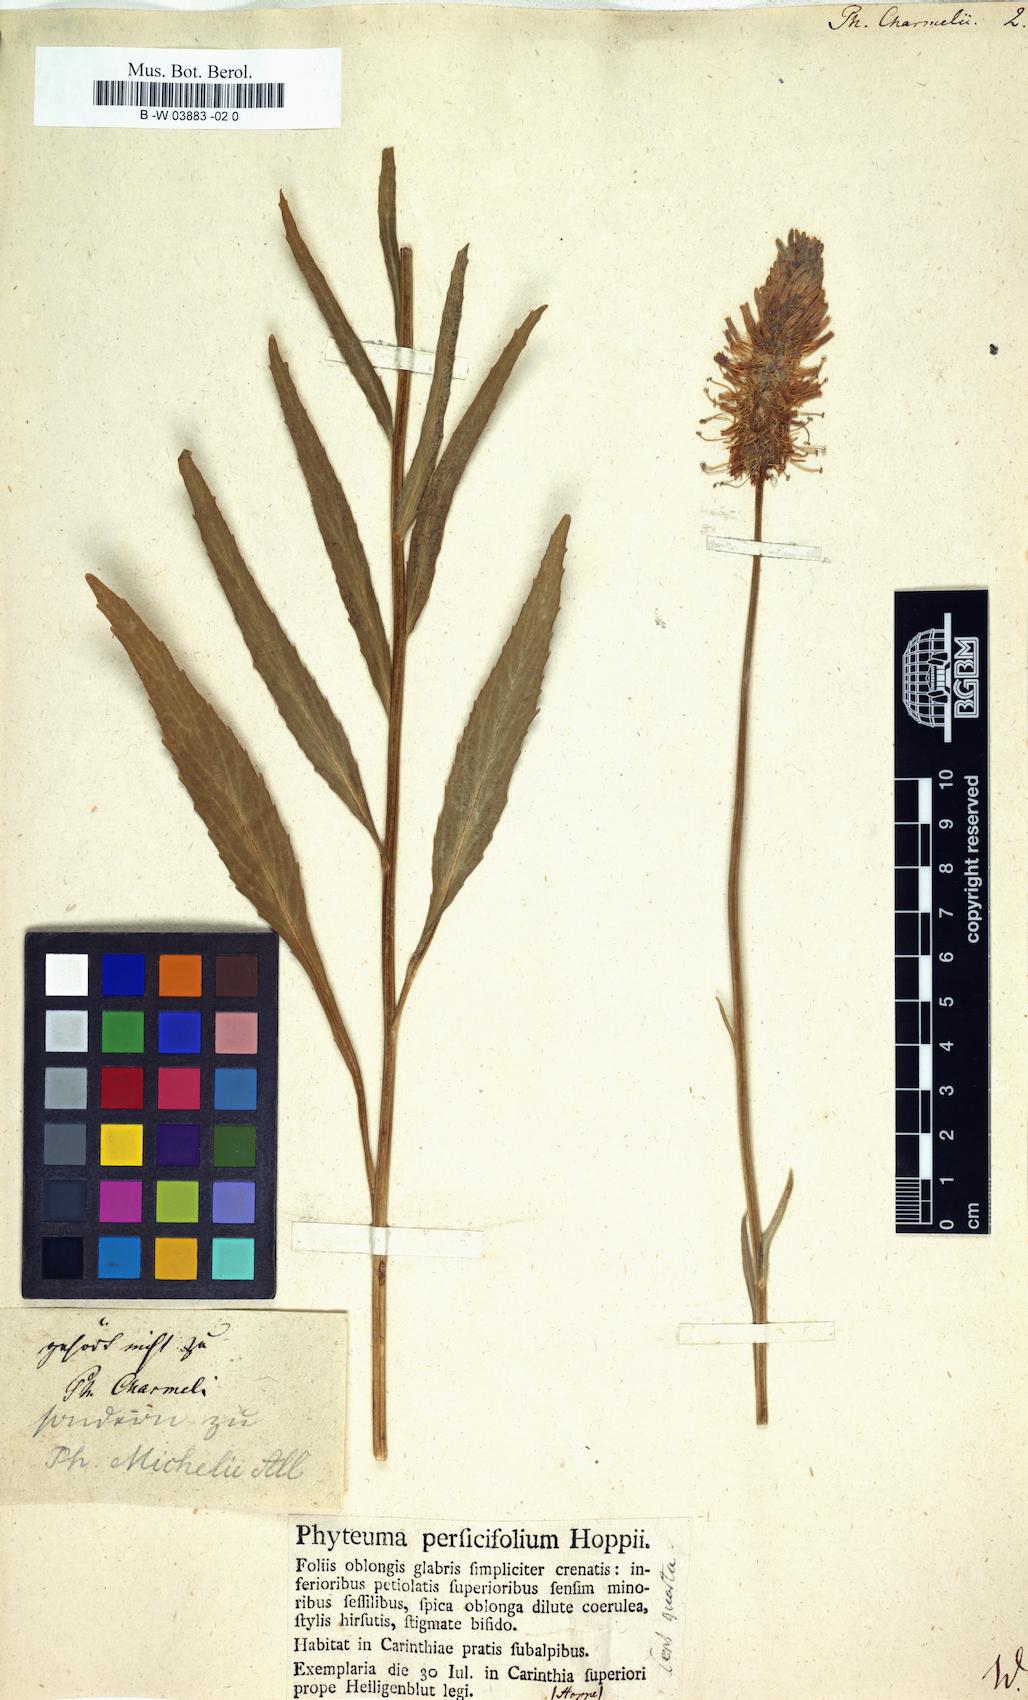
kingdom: Plantae
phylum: Tracheophyta
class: Magnoliopsida
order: Asterales
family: Campanulaceae
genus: Phyteuma
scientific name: Phyteuma charmelii
